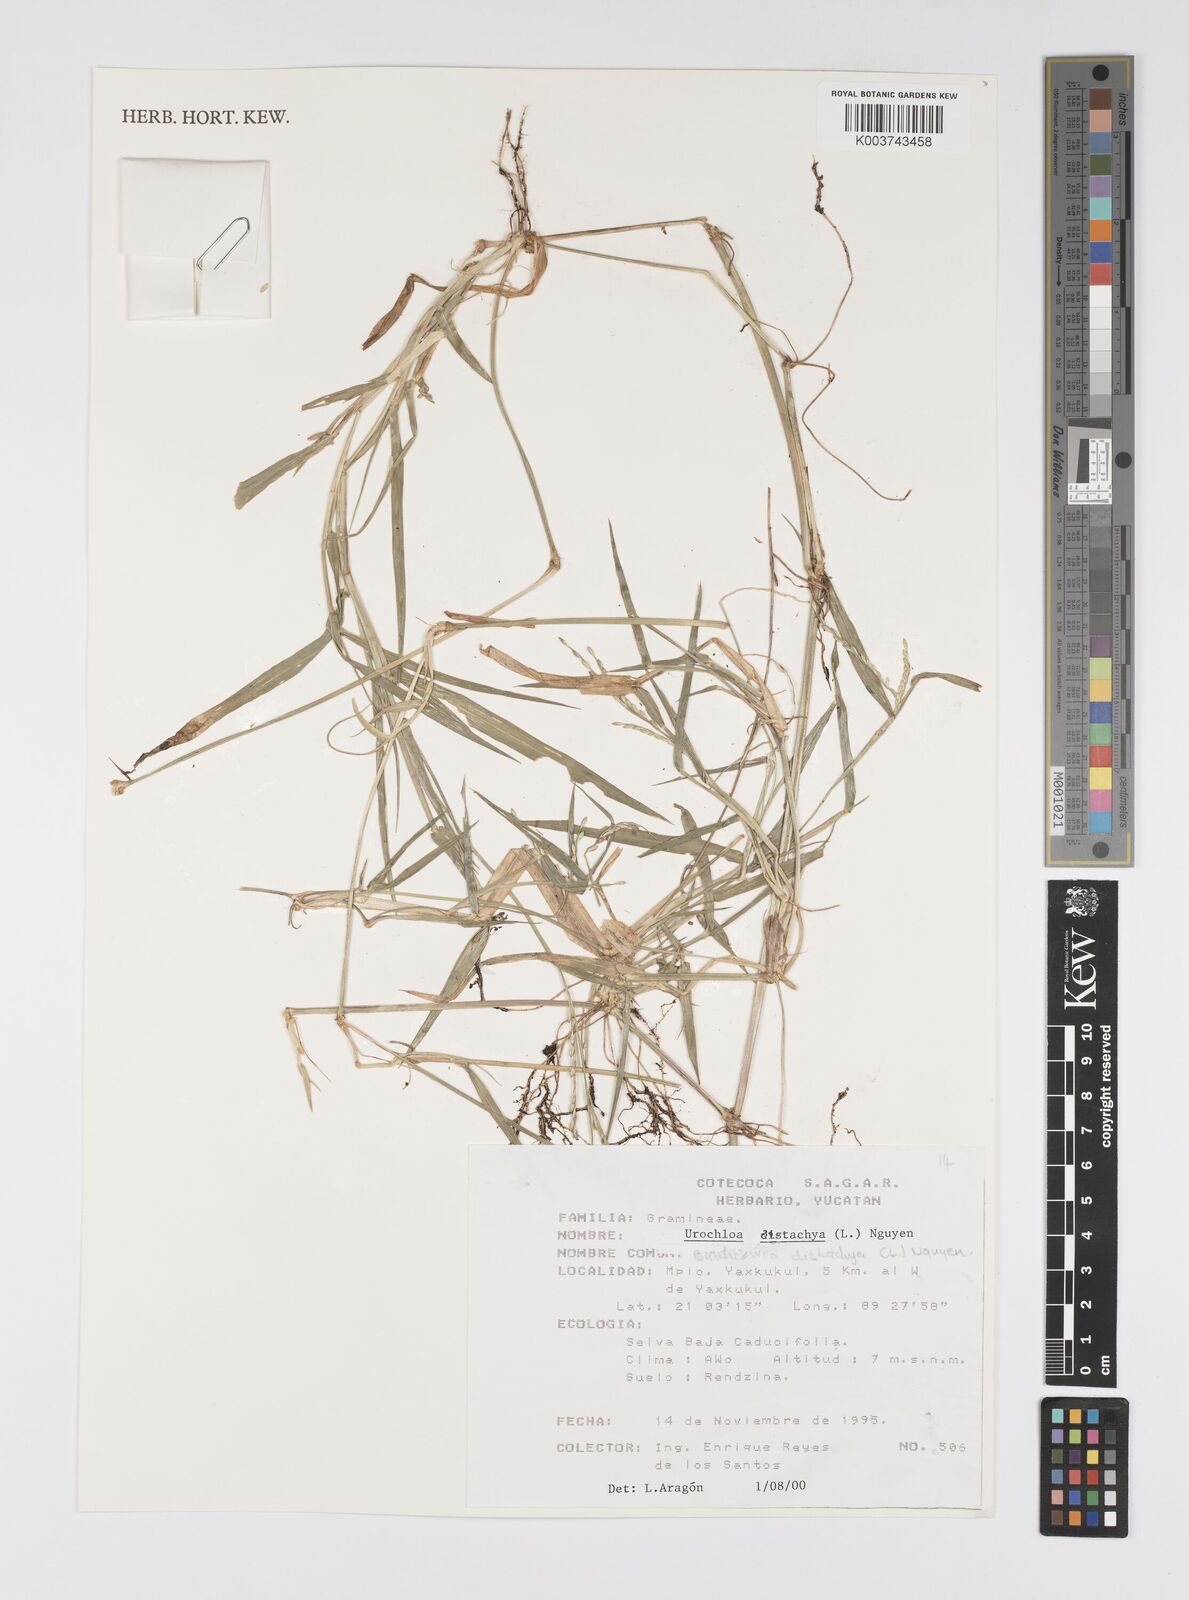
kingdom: Plantae
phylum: Tracheophyta
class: Liliopsida
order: Poales
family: Poaceae
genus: Urochloa
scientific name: Urochloa distachyos
